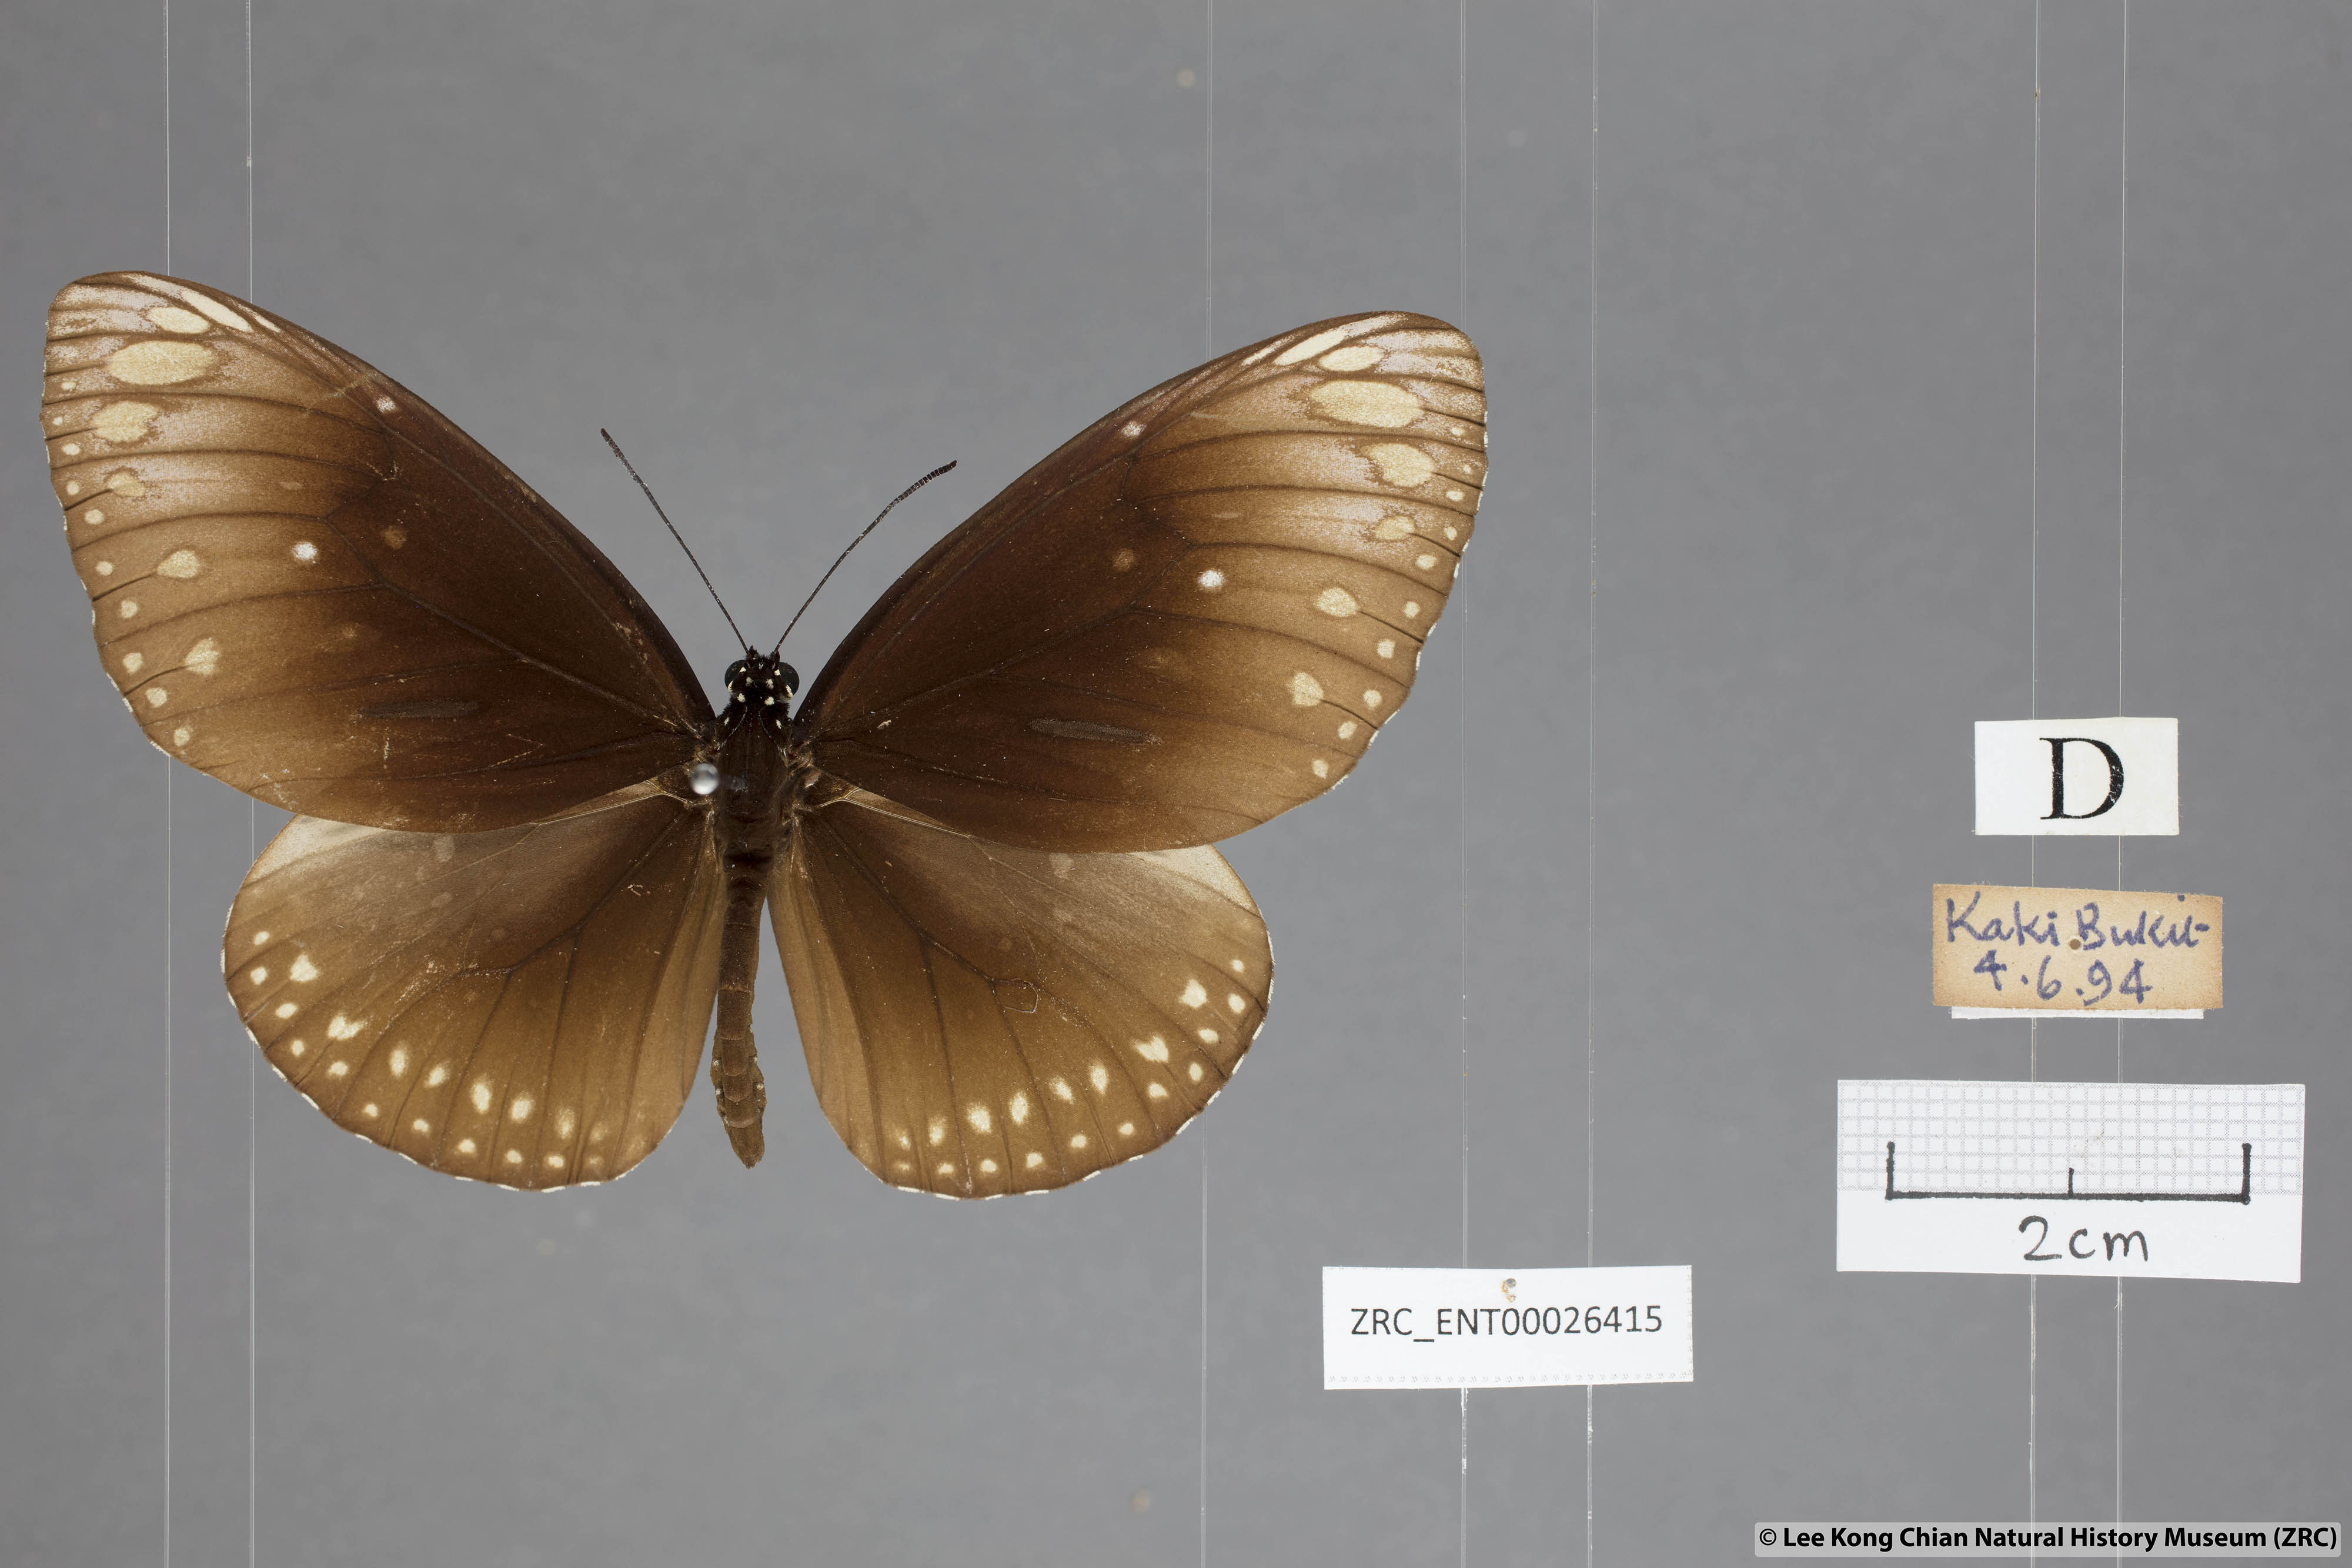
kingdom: Animalia
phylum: Arthropoda
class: Insecta
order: Lepidoptera
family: Nymphalidae
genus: Euploea
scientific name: Euploea core
